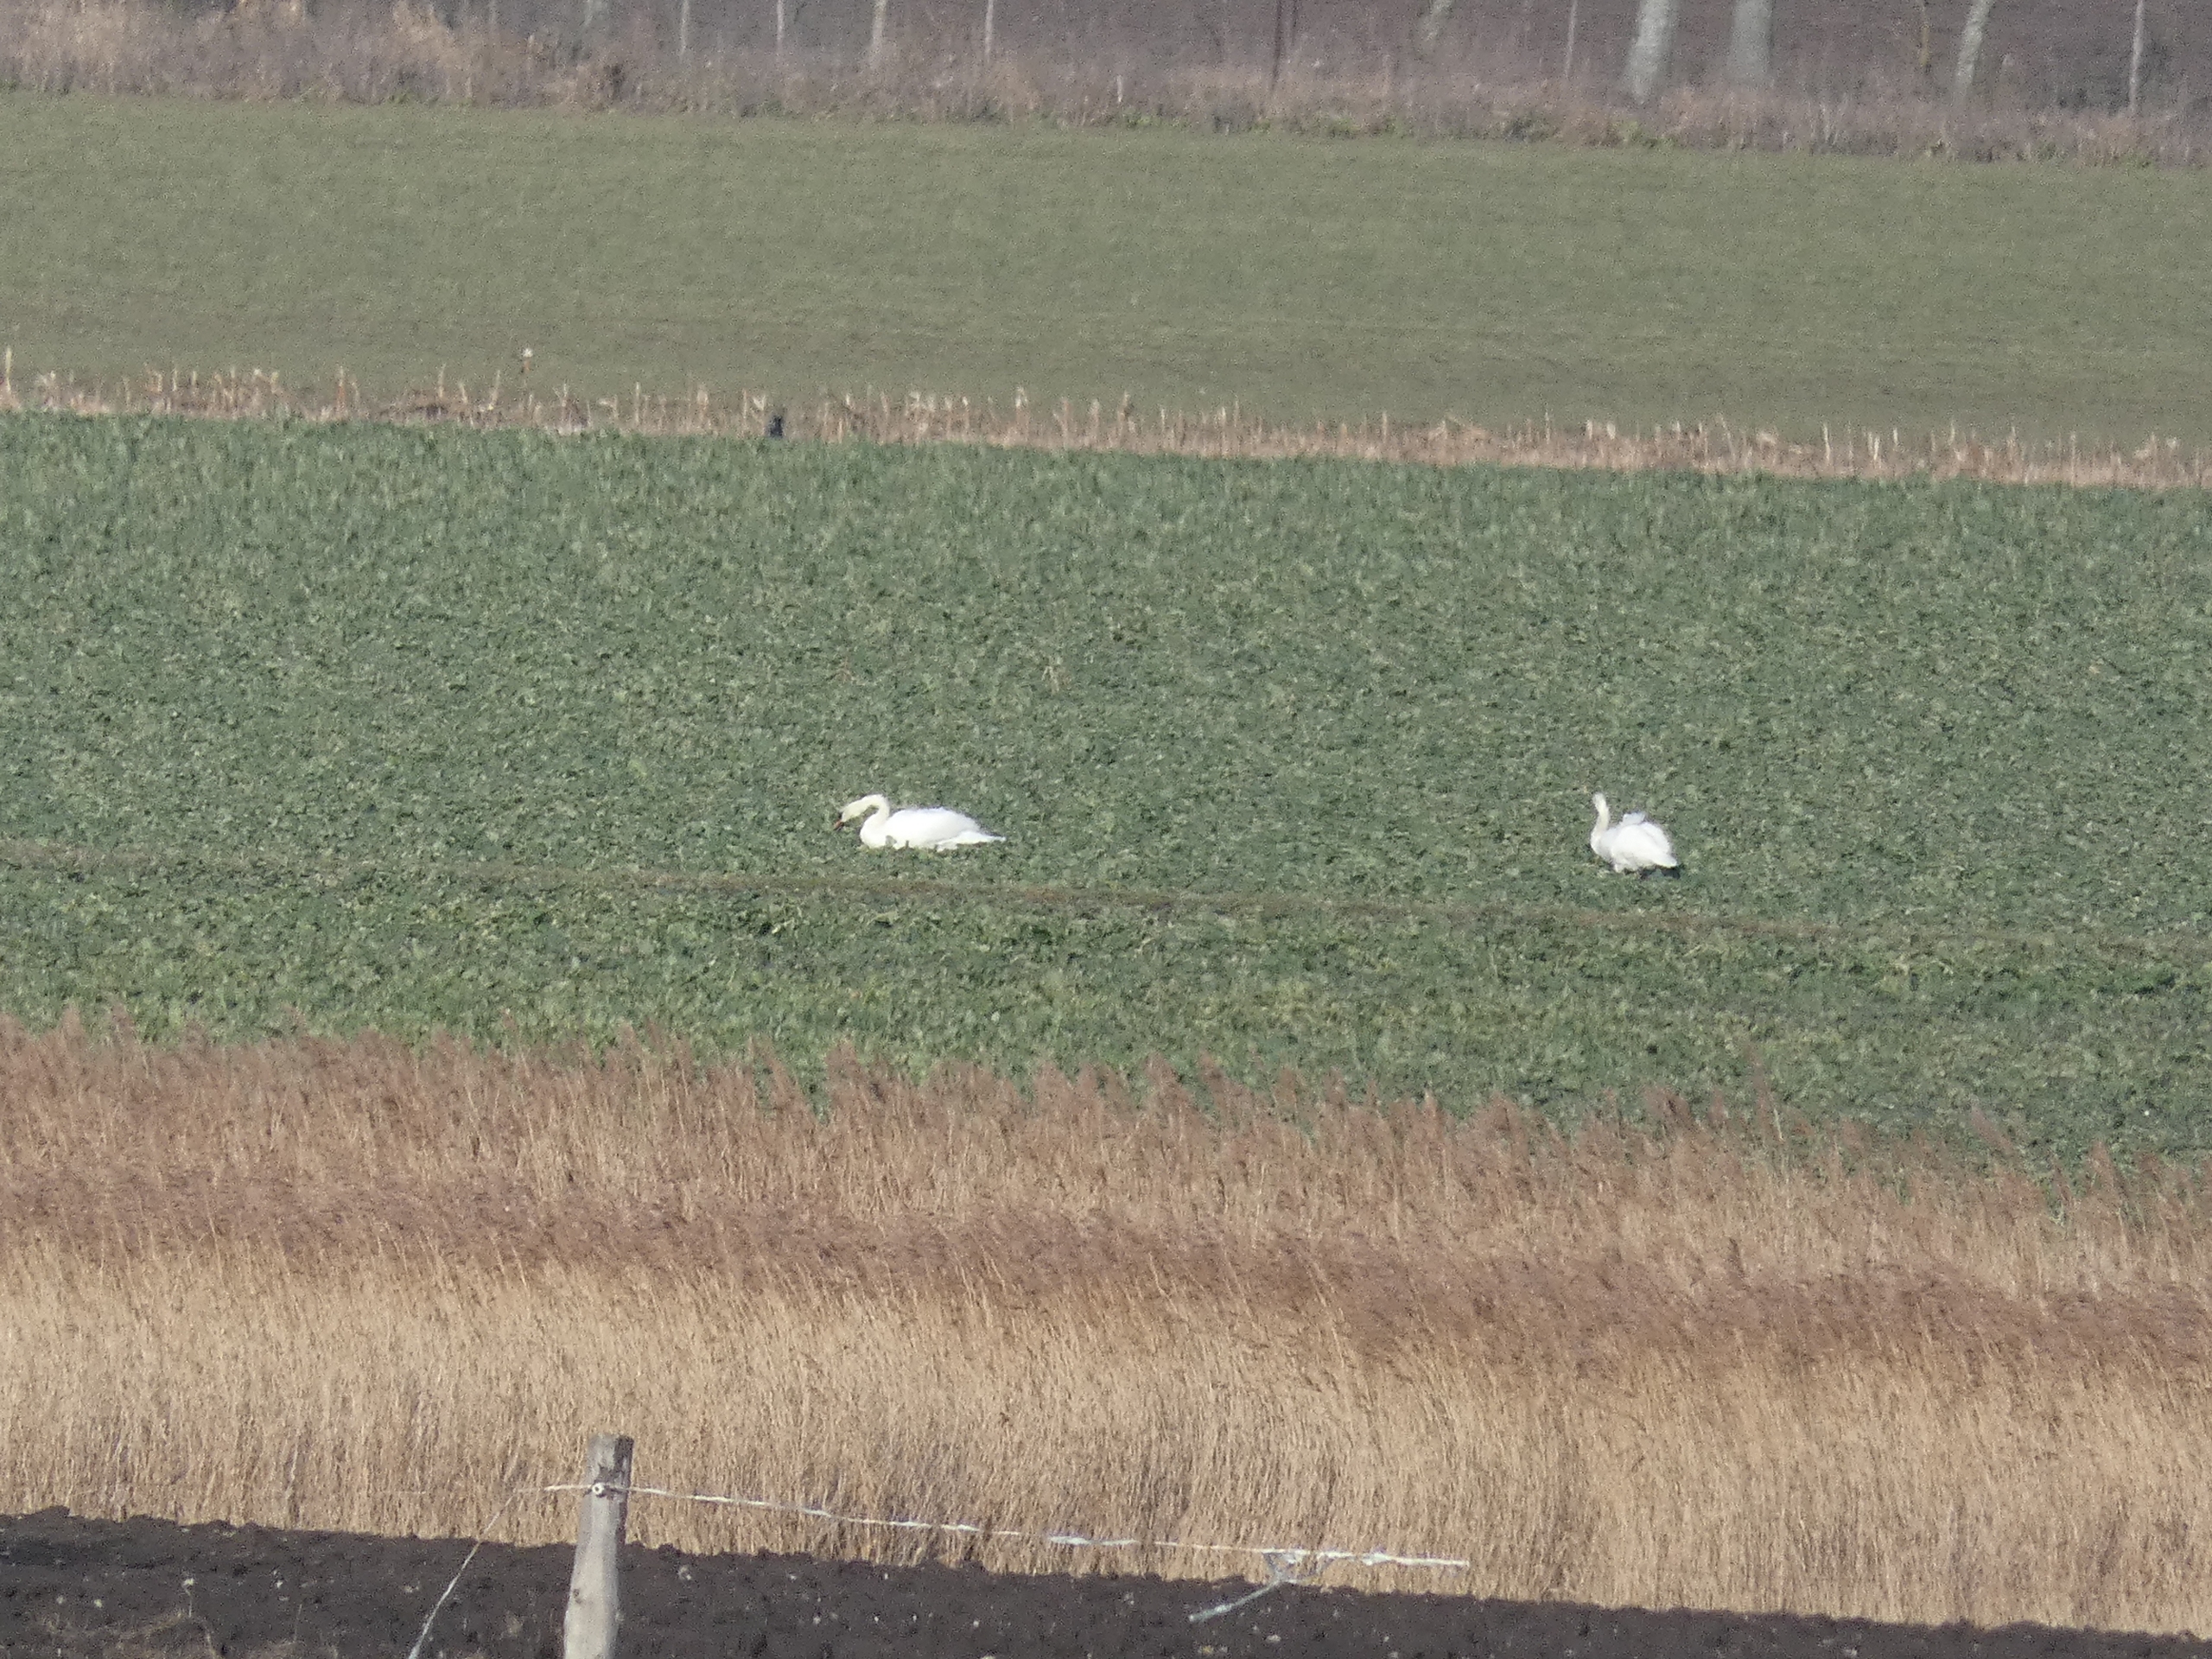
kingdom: Animalia
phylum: Chordata
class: Aves
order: Anseriformes
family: Anatidae
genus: Cygnus
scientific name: Cygnus olor
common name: Knopsvane
